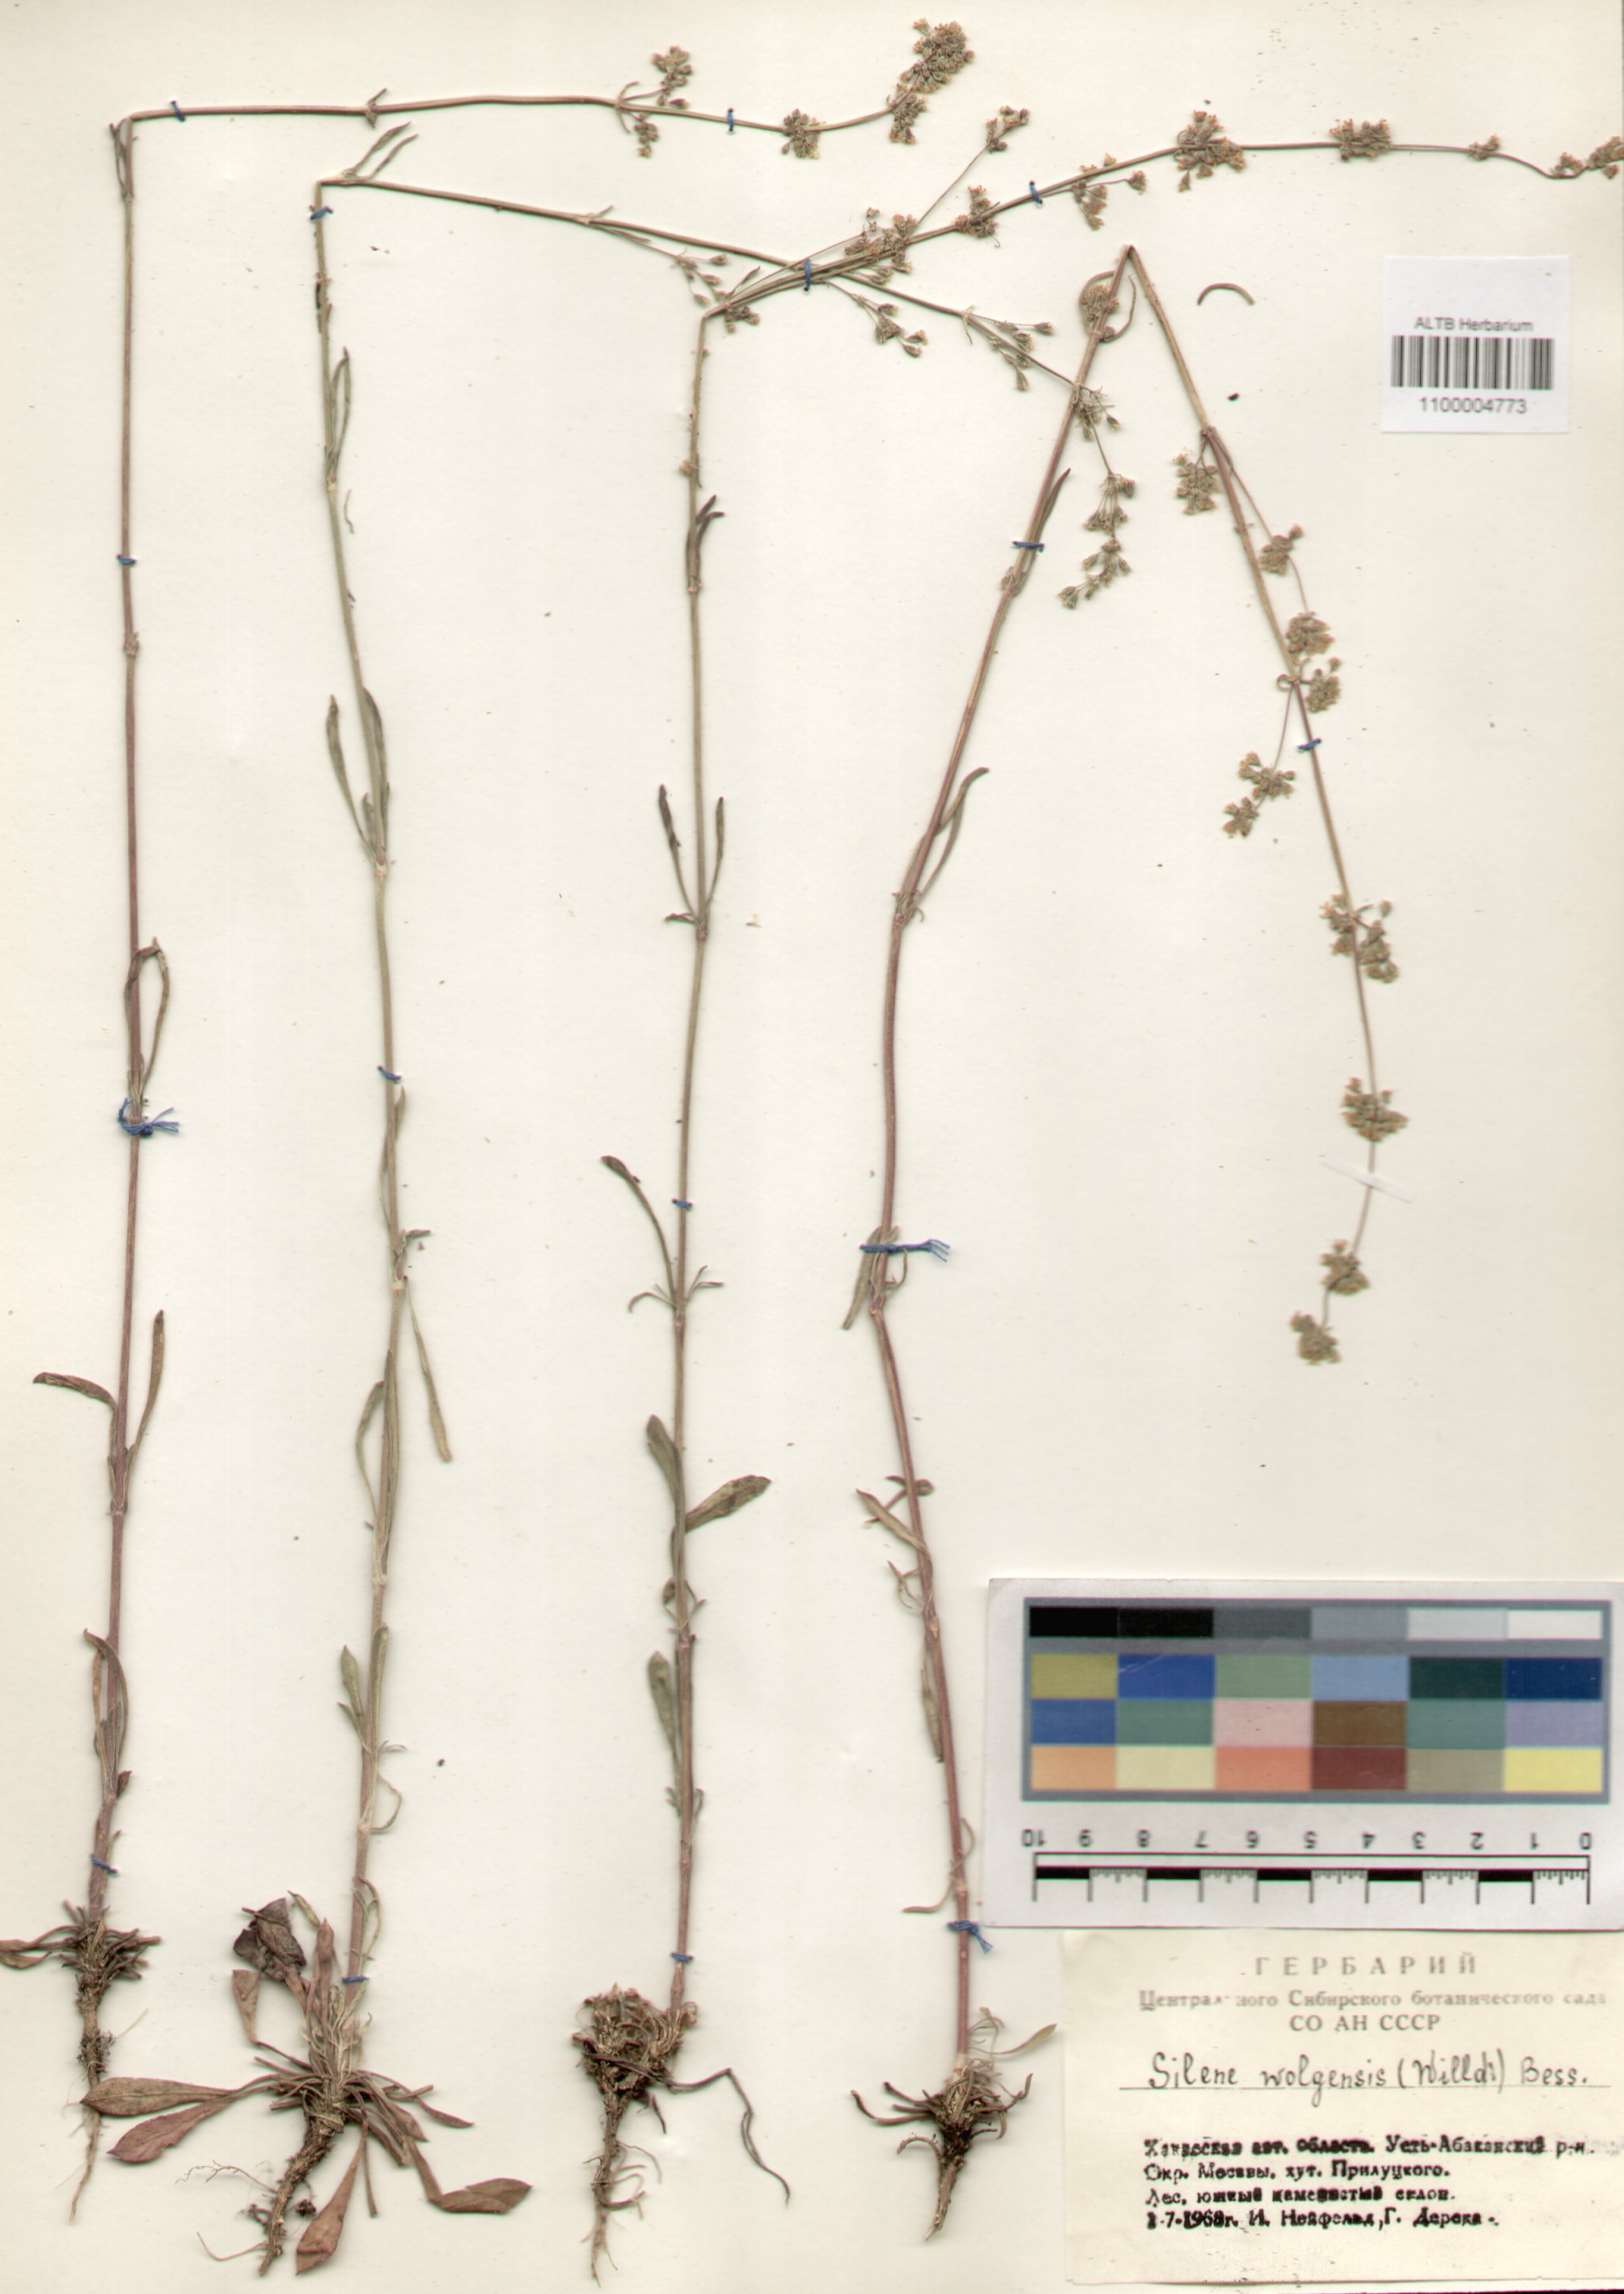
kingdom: Plantae
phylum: Tracheophyta
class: Magnoliopsida
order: Caryophyllales
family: Caryophyllaceae
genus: Silene
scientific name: Silene wolgensis
